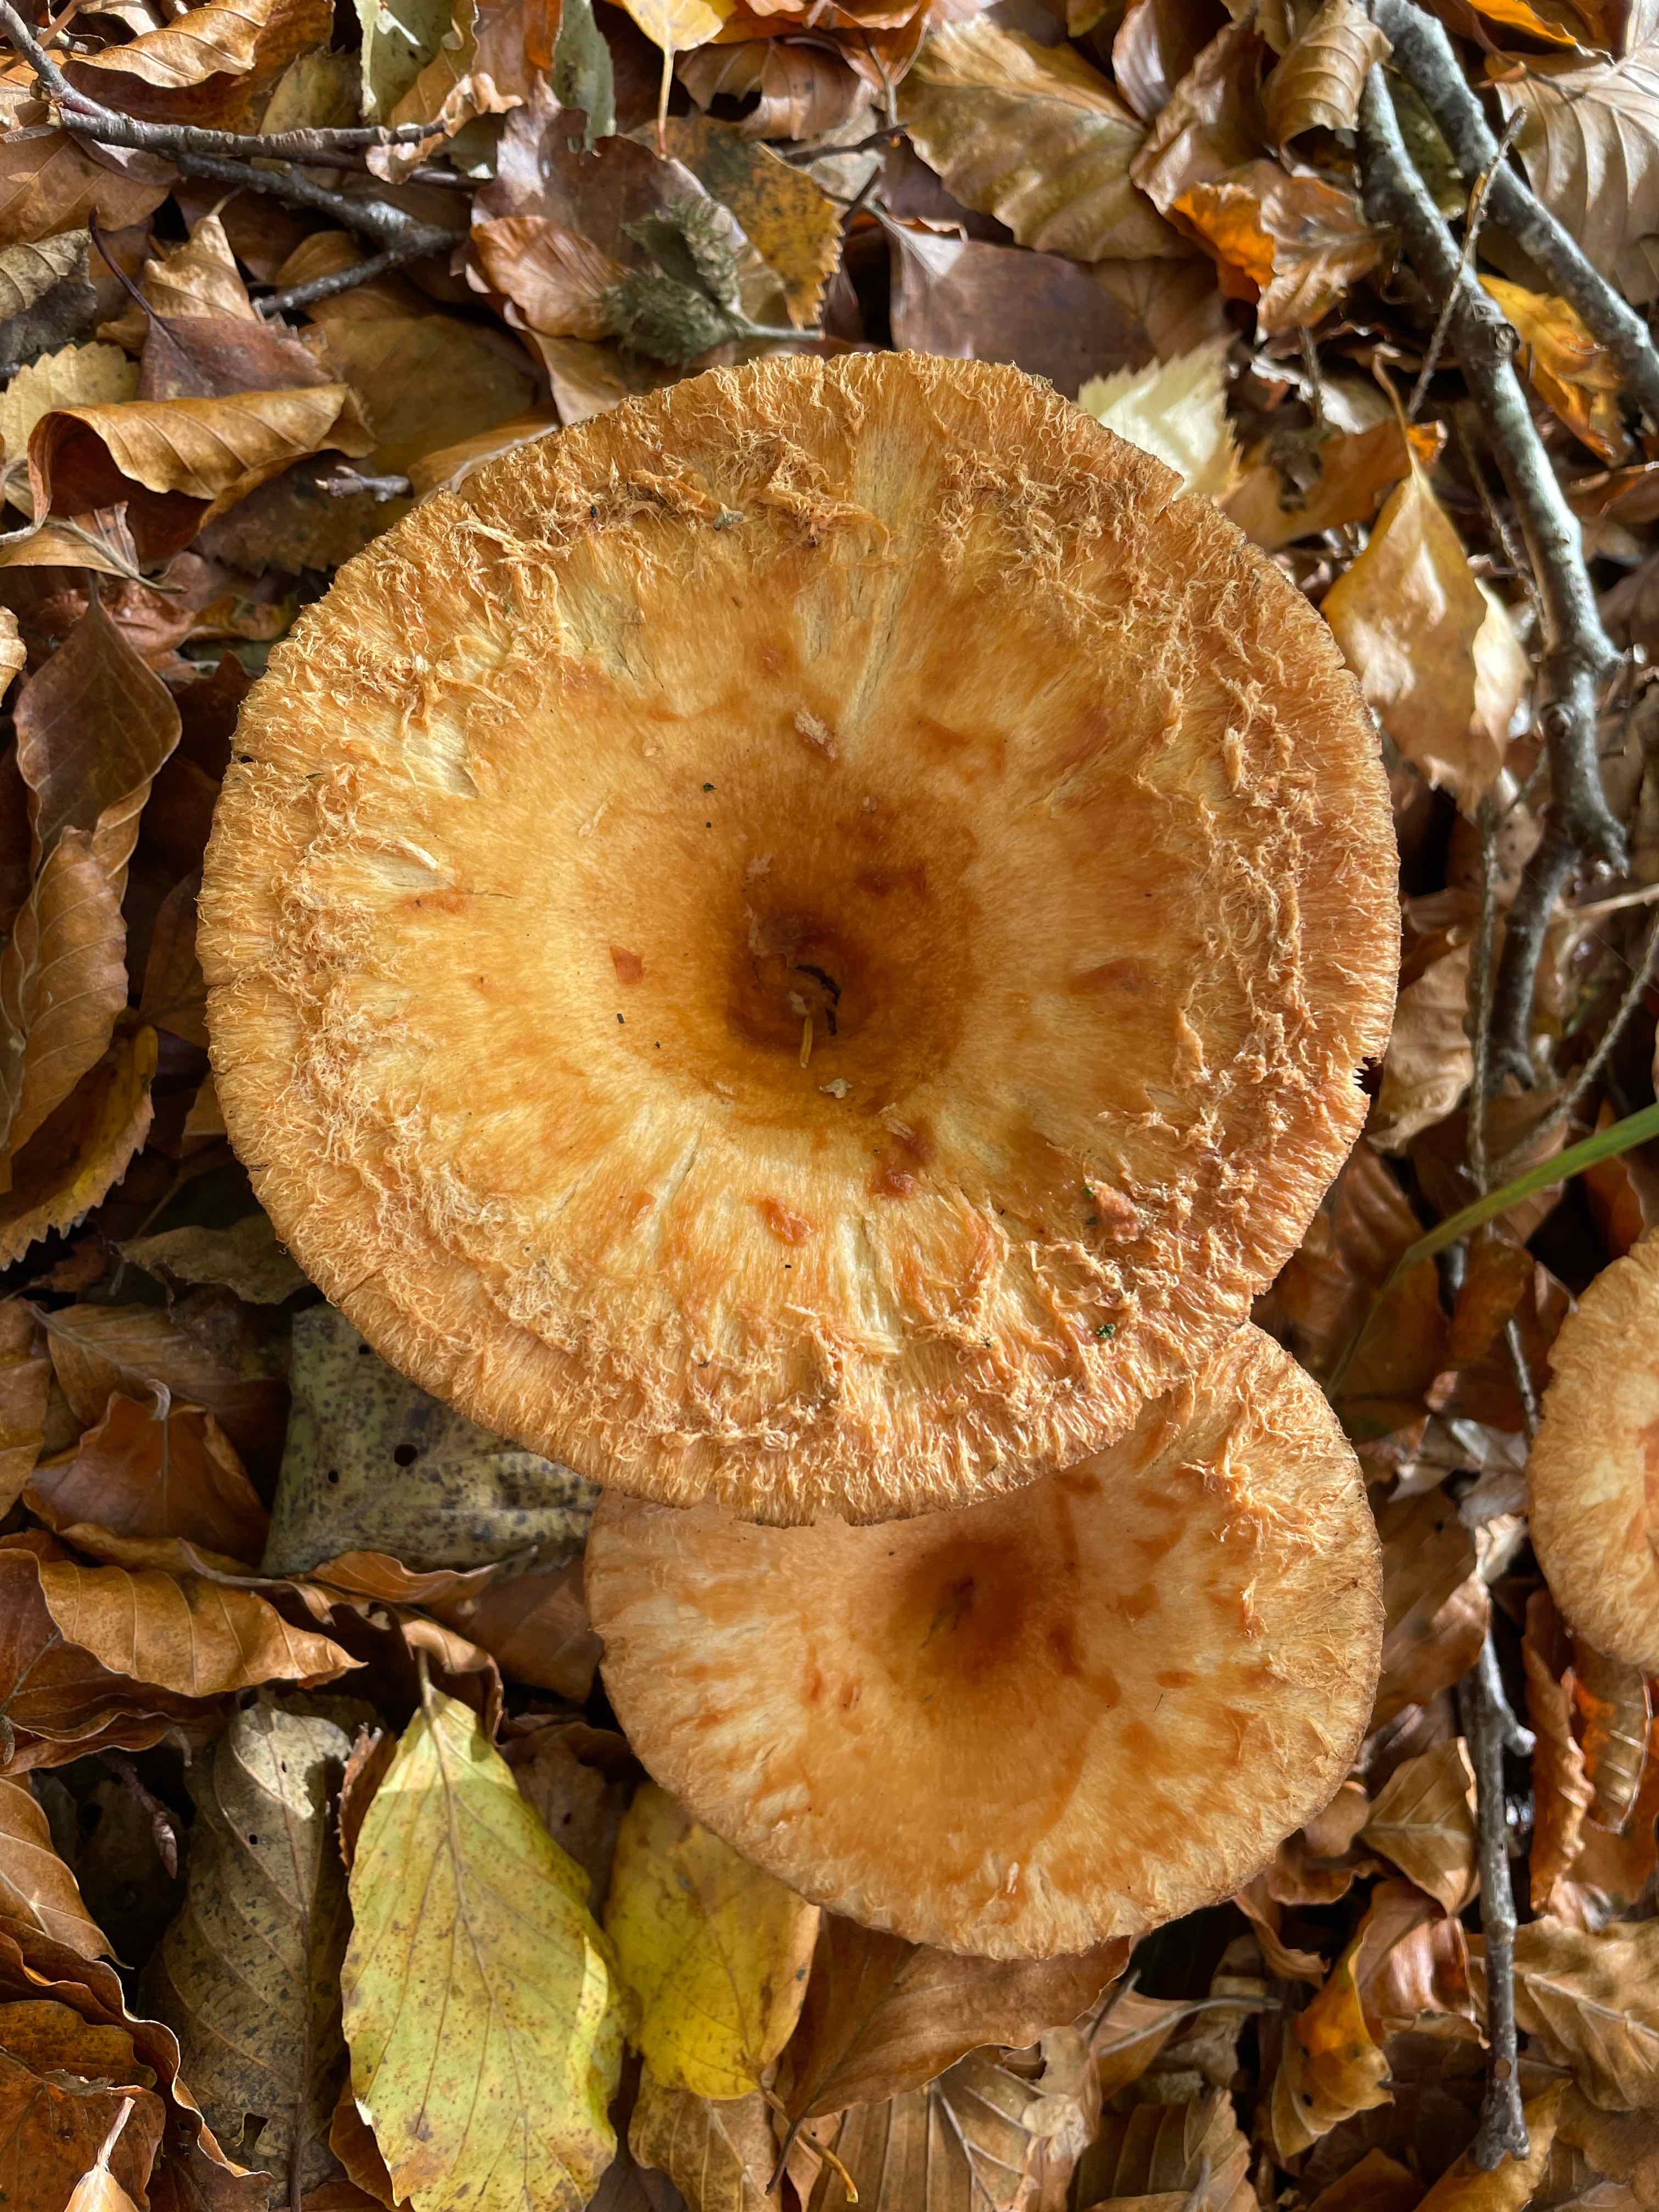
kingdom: Fungi
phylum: Basidiomycota
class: Agaricomycetes
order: Russulales
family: Russulaceae
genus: Lactarius
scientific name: Lactarius torminosus
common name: skægget mælkehat
